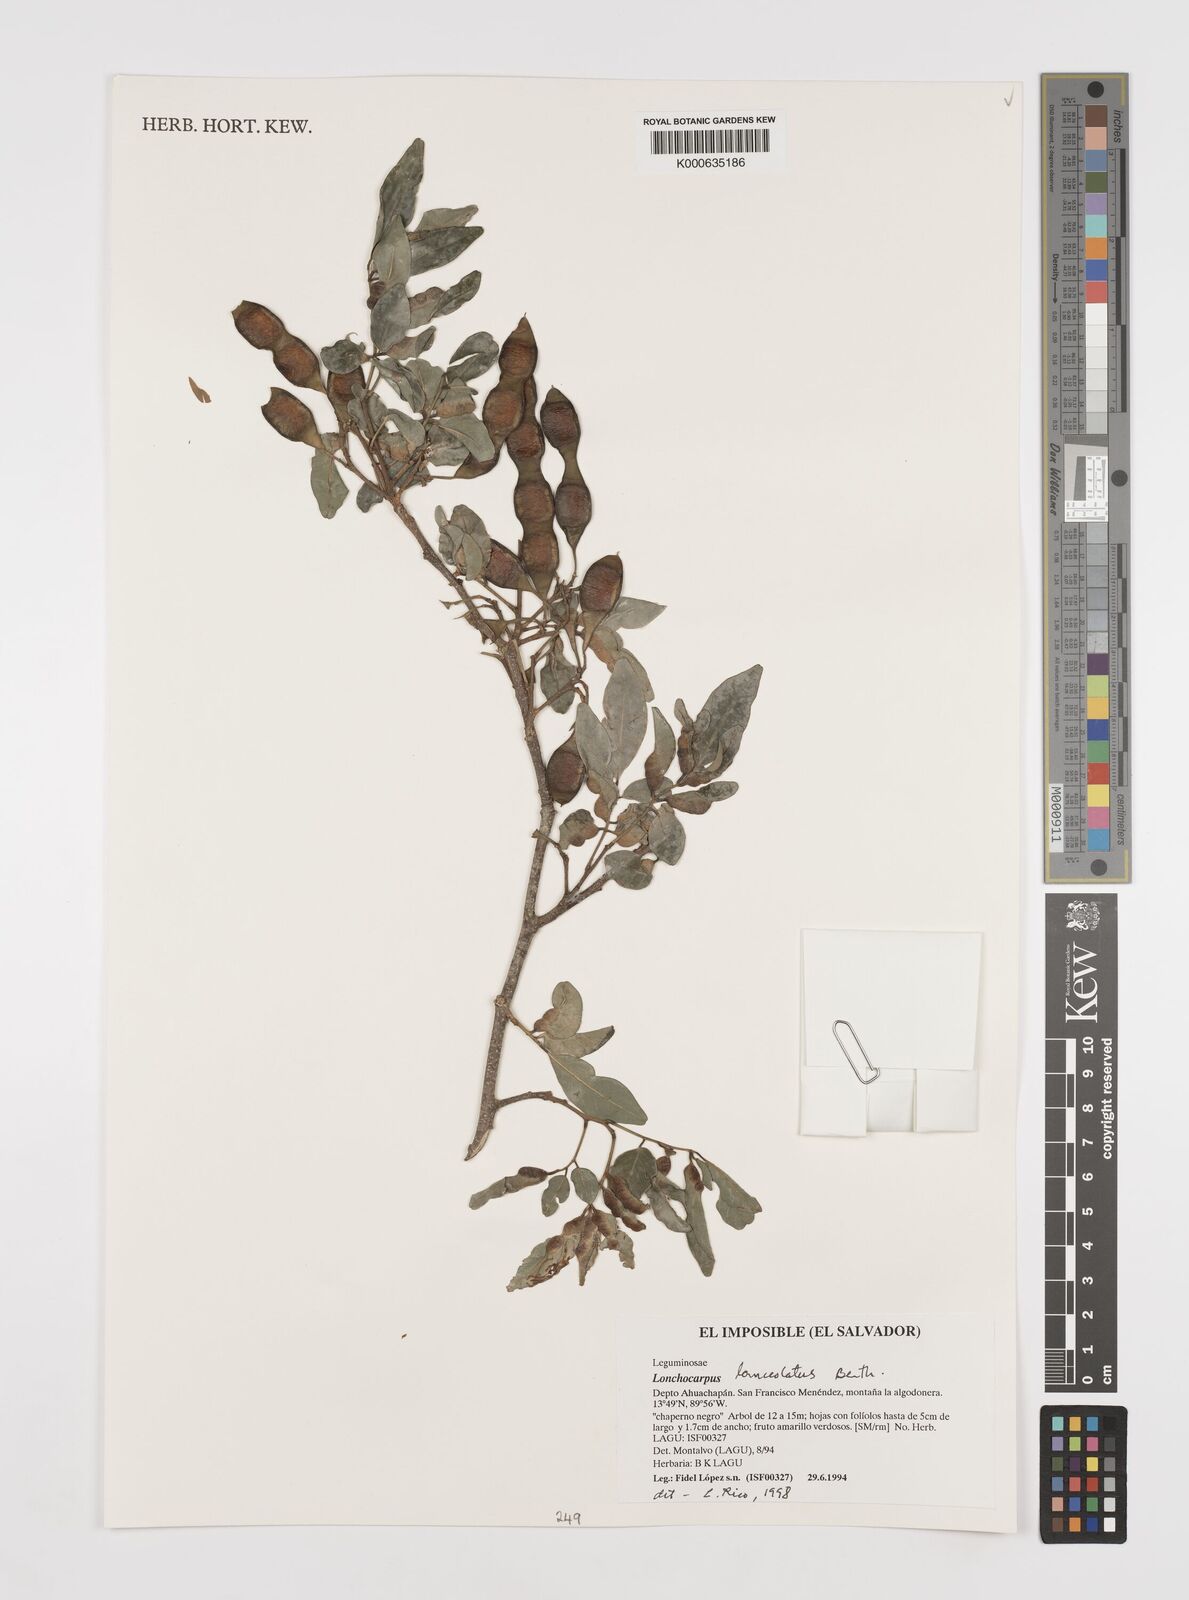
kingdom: Plantae
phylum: Tracheophyta
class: Magnoliopsida
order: Fabales
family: Fabaceae
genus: Lonchocarpus
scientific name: Lonchocarpus lanceolatus
